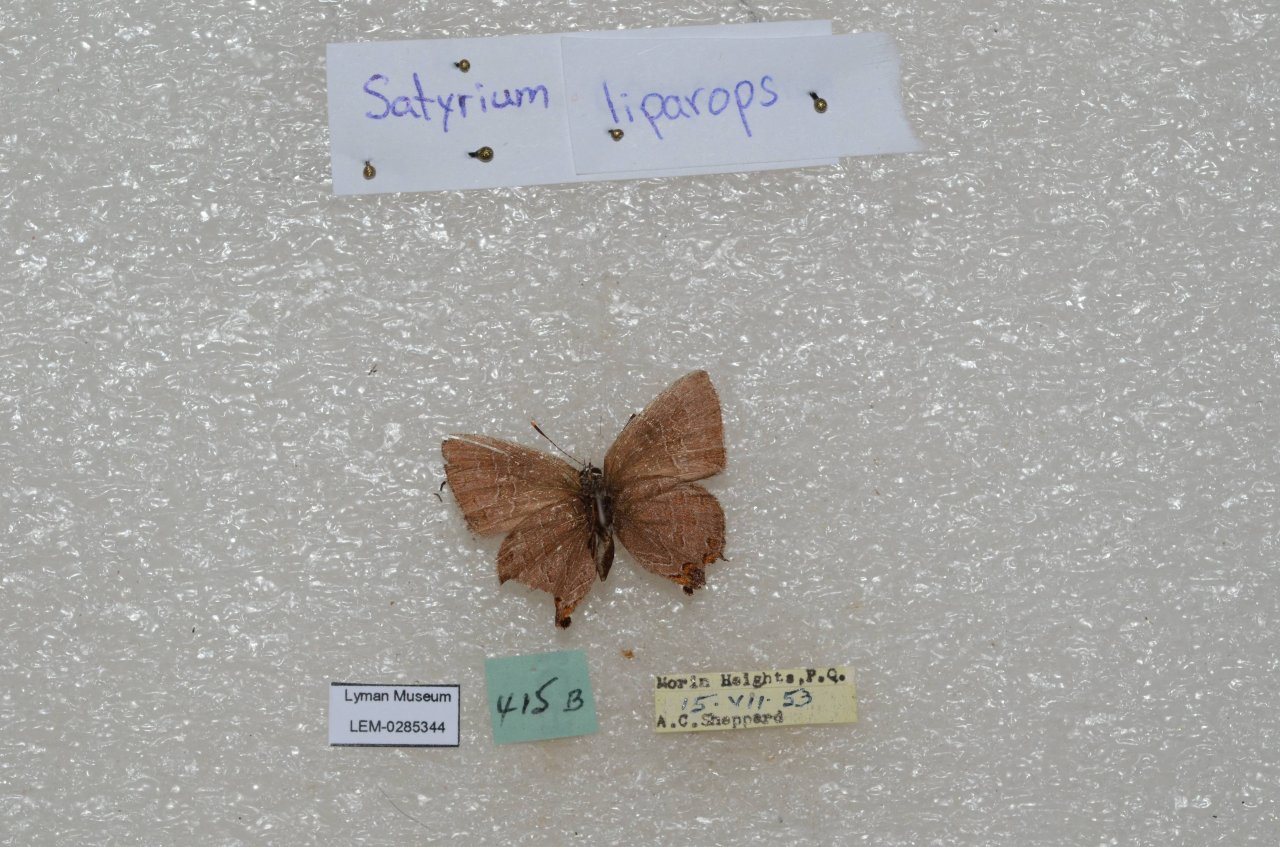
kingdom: Animalia
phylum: Arthropoda
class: Insecta
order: Lepidoptera
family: Lycaenidae
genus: Satyrium
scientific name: Satyrium liparops
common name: Striped Hairstreak
